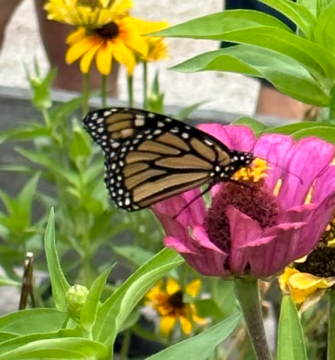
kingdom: Animalia
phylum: Arthropoda
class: Insecta
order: Lepidoptera
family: Nymphalidae
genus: Danaus
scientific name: Danaus plexippus
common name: Monarch
